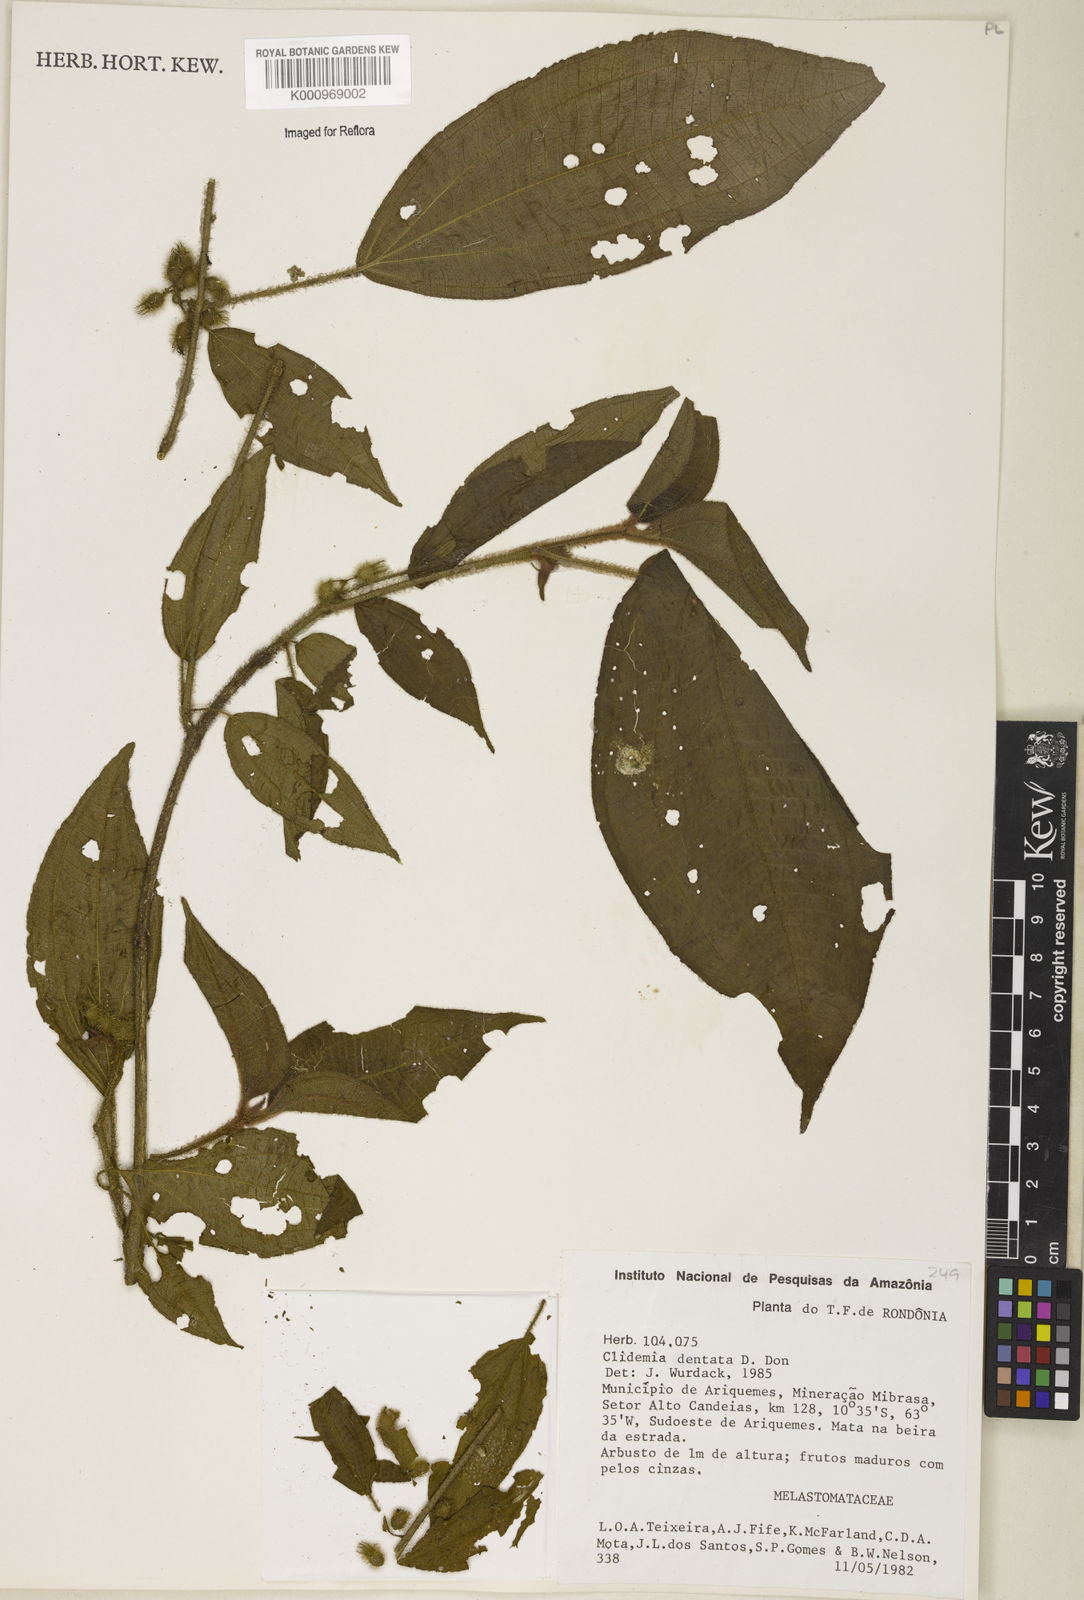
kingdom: Plantae
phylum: Tracheophyta
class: Magnoliopsida
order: Myrtales
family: Melastomataceae
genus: Miconia
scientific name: Miconia dentata
